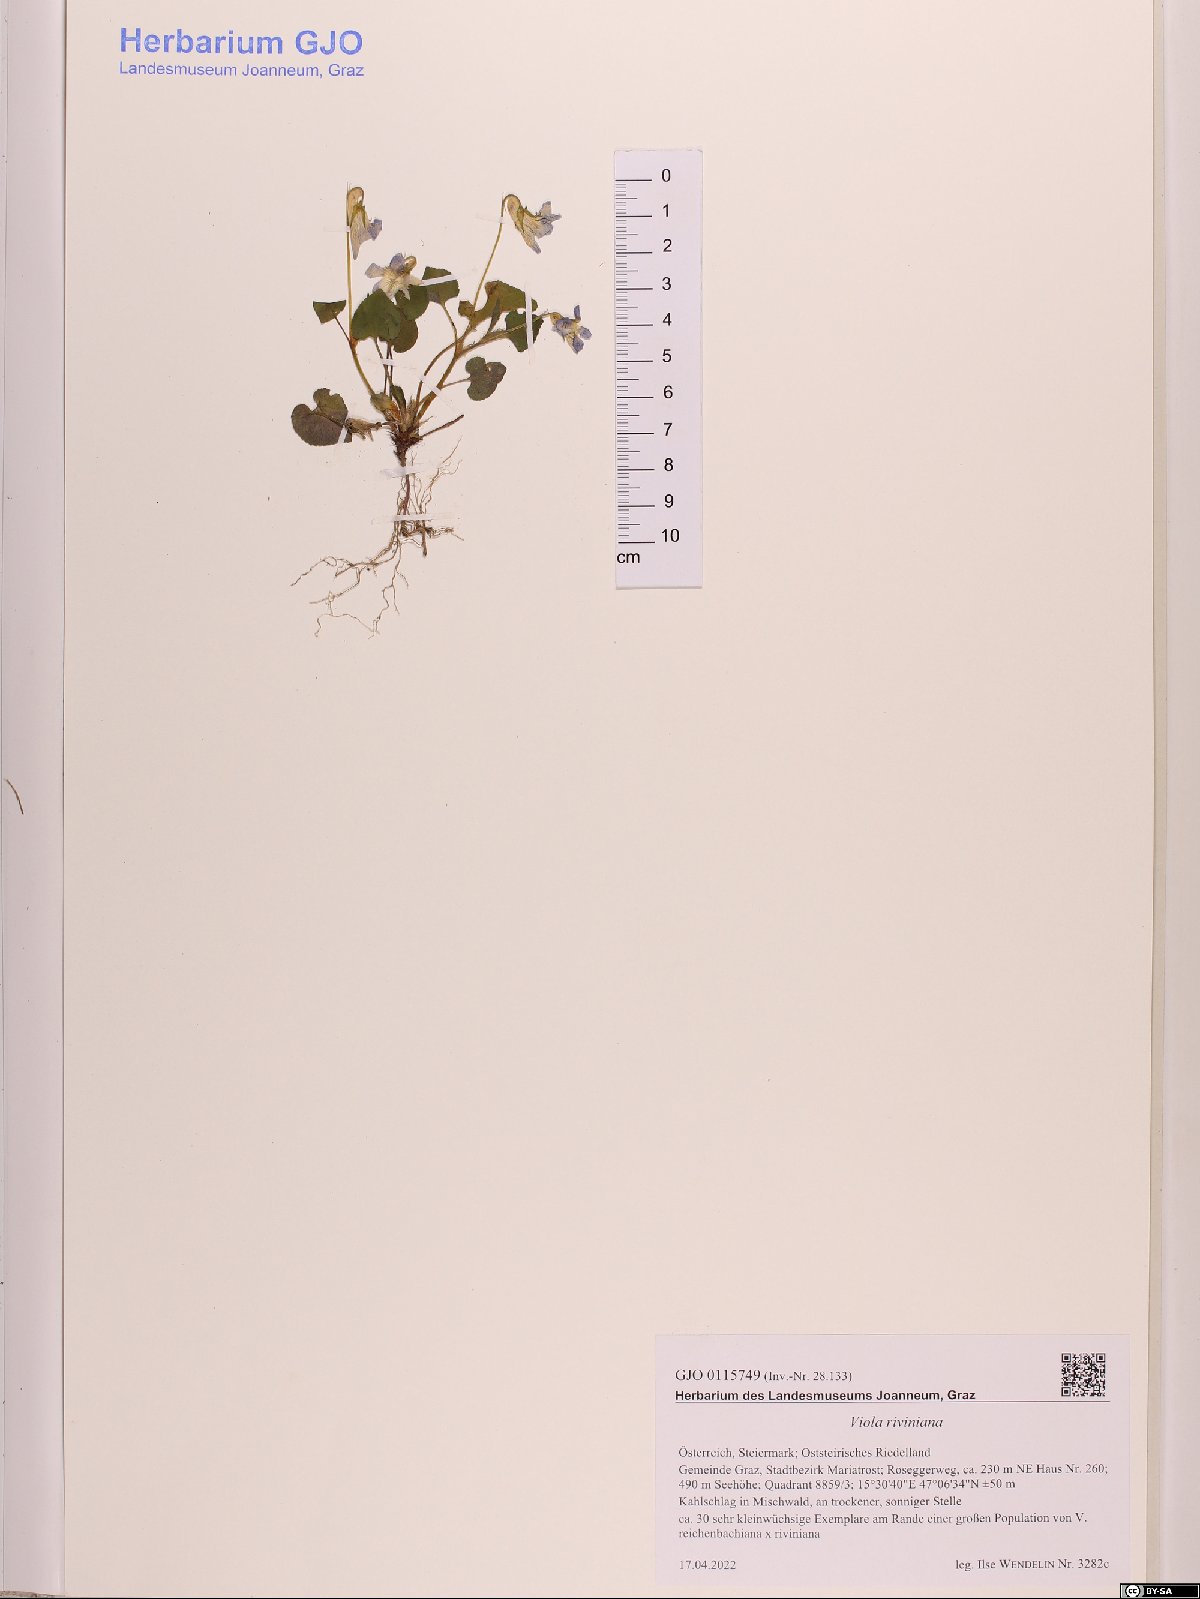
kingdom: Plantae
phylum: Tracheophyta
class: Magnoliopsida
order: Malpighiales
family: Violaceae
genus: Viola
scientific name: Viola riviniana
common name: Common dog-violet
